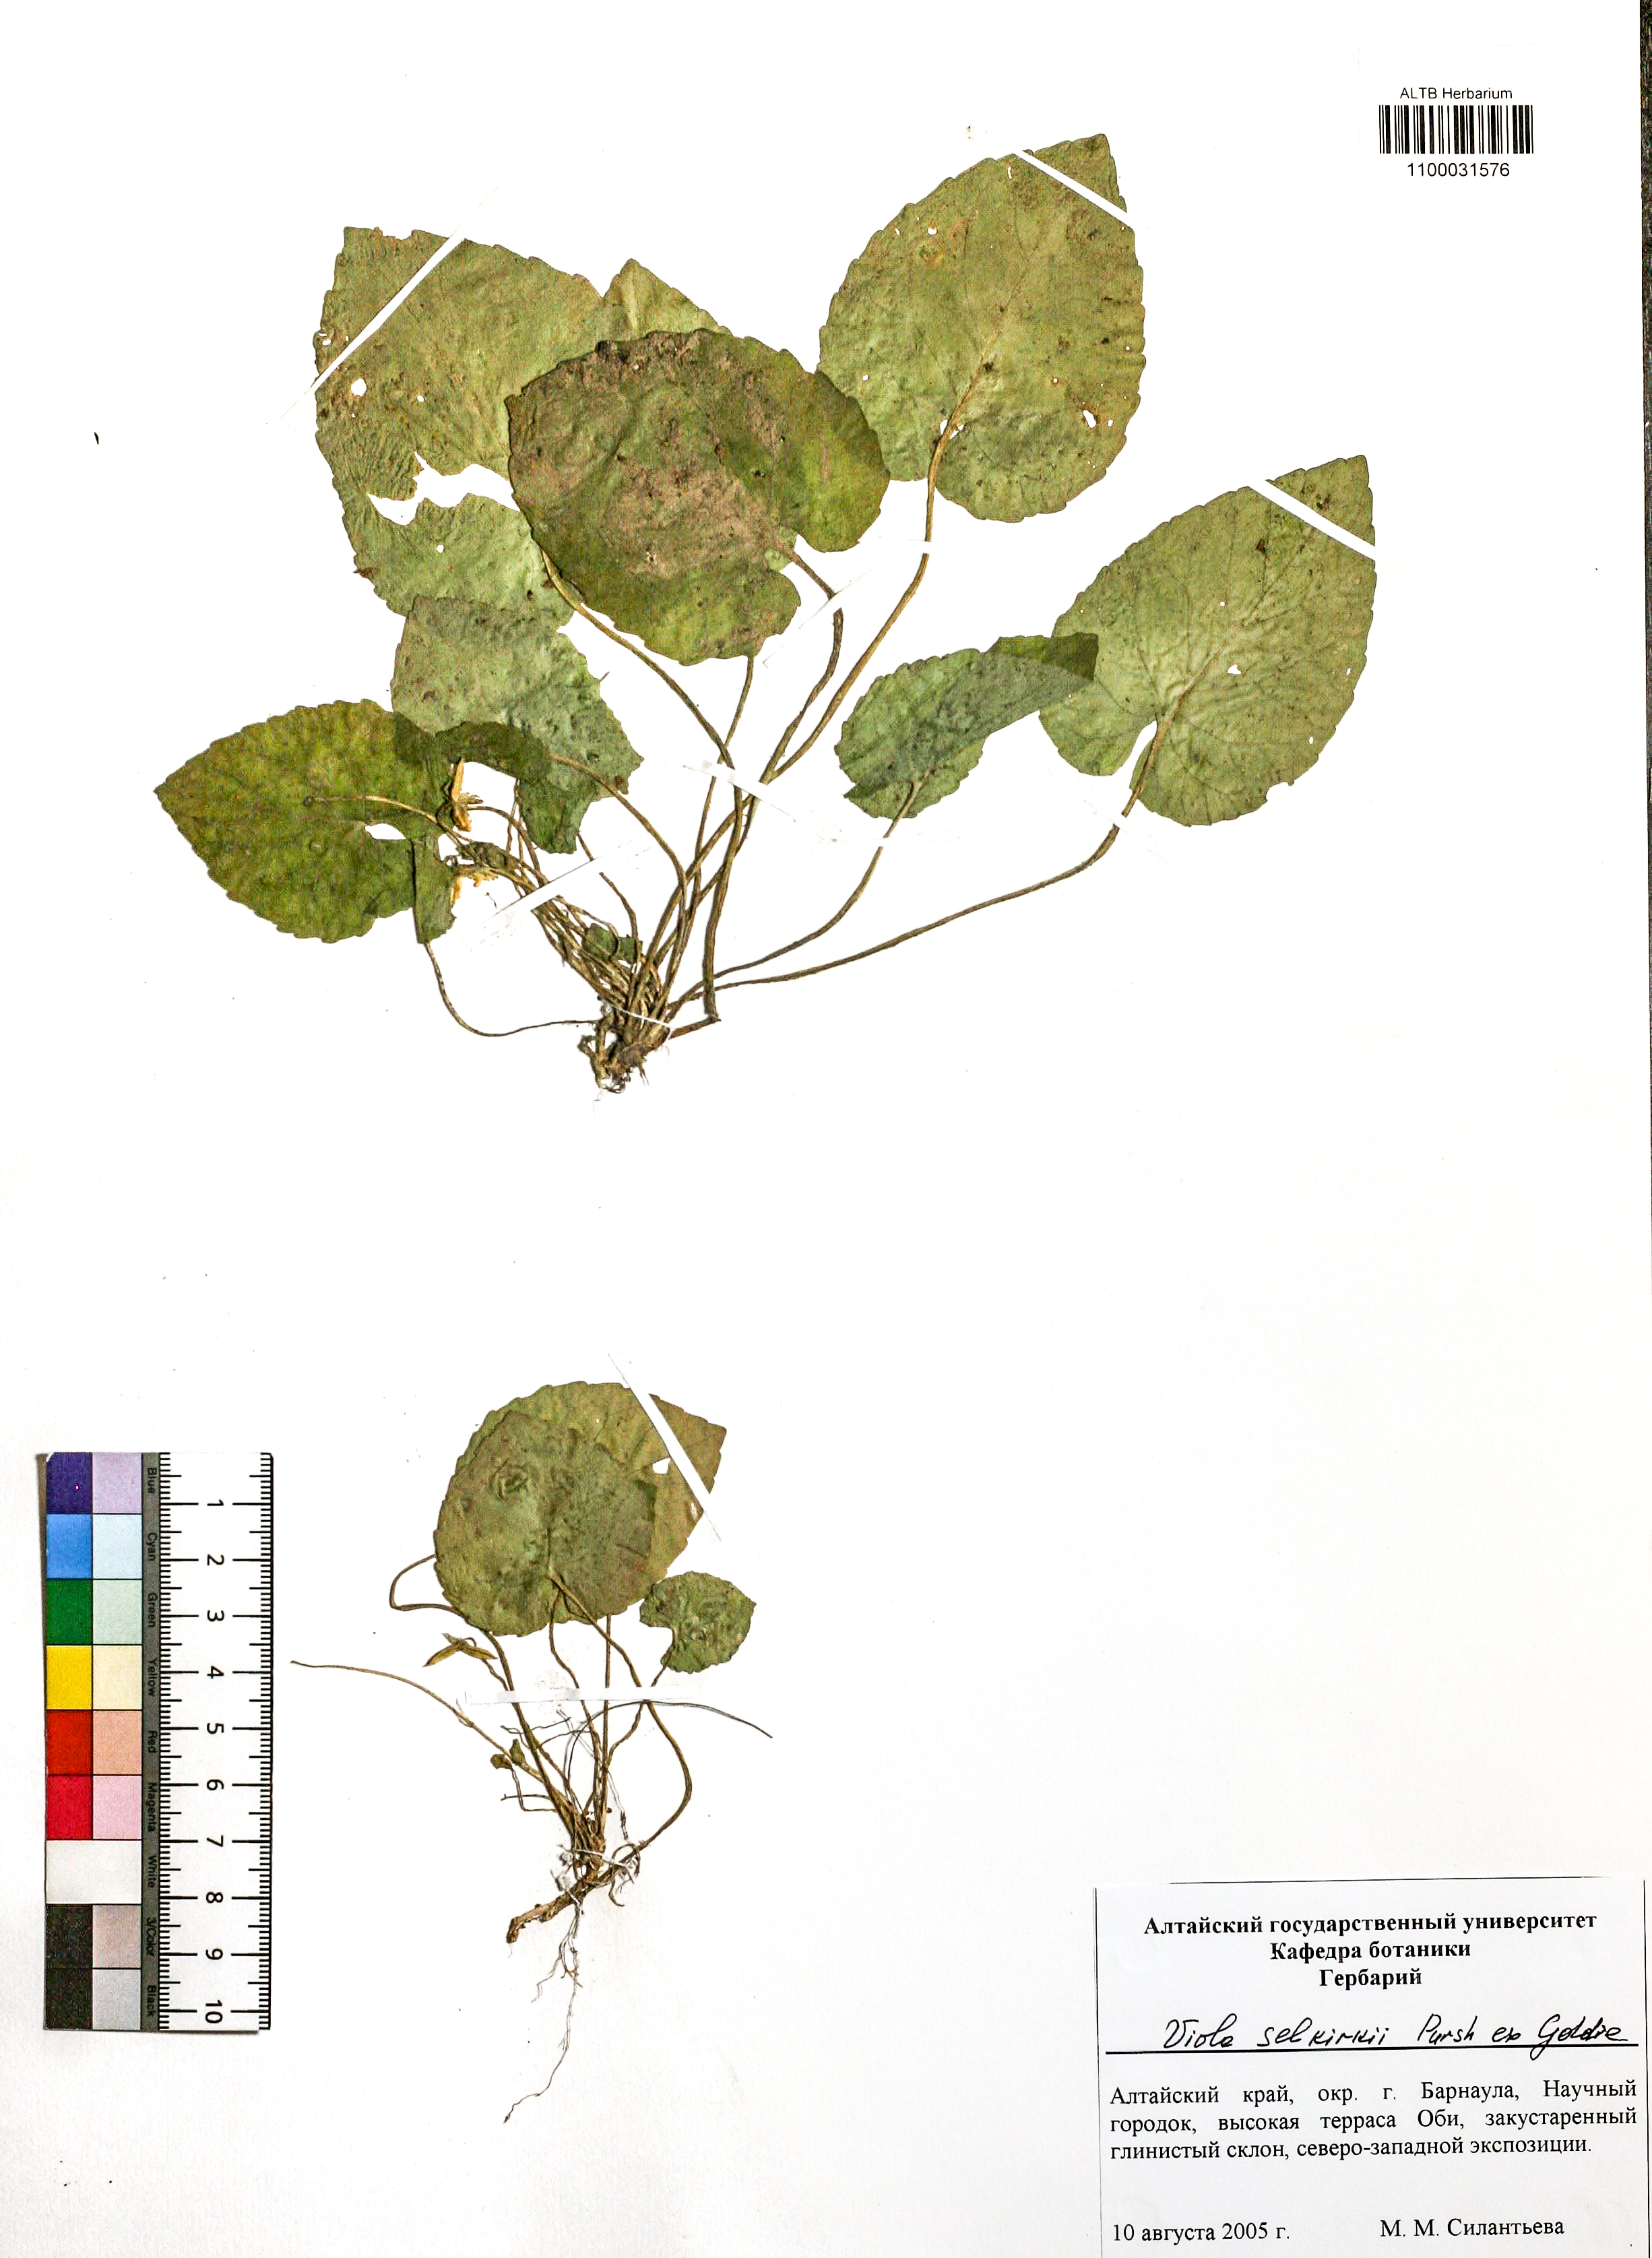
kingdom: Plantae
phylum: Tracheophyta
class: Magnoliopsida
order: Malpighiales
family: Violaceae
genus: Viola
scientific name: Viola selkirkii
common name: Selkirk's violet
